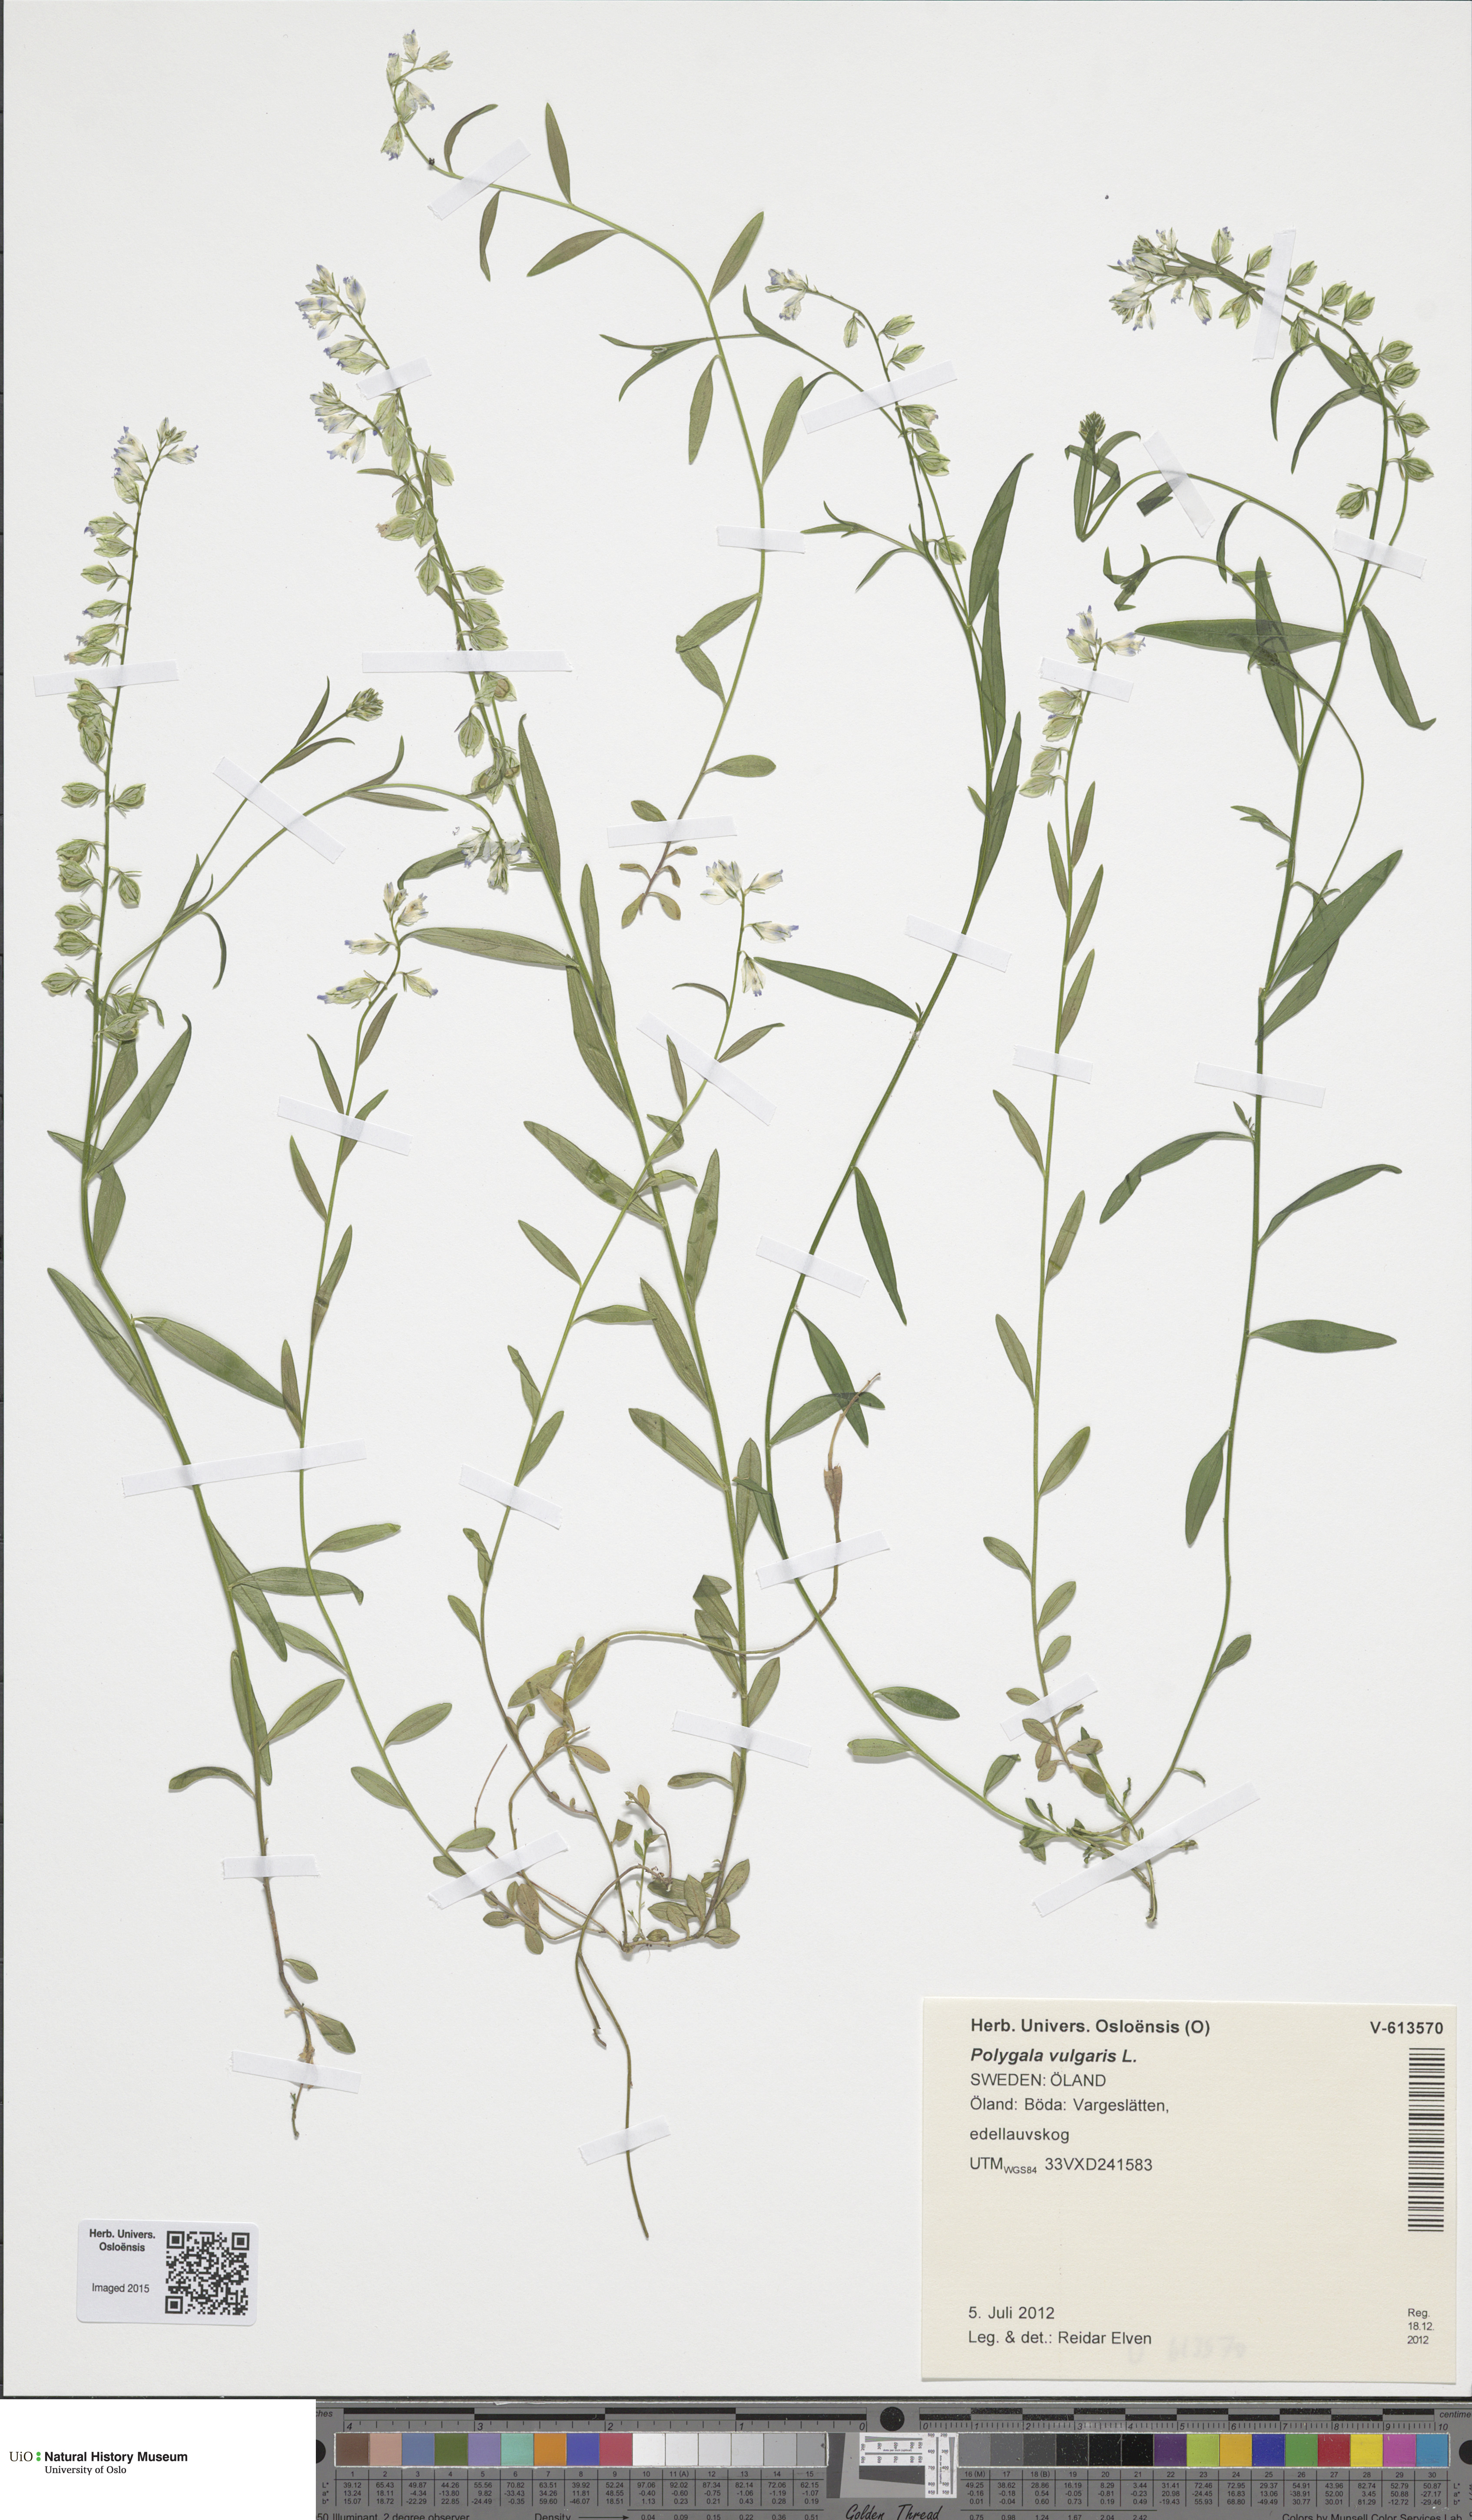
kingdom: Plantae
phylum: Tracheophyta
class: Magnoliopsida
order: Fabales
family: Polygalaceae
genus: Polygala
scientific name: Polygala vulgaris
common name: Common milkwort
